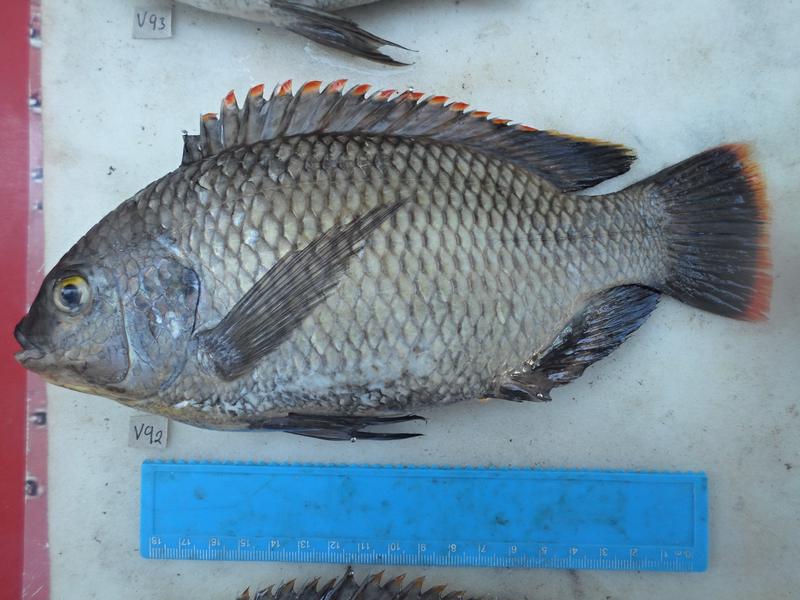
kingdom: Animalia
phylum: Chordata
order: Perciformes
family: Cichlidae
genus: Oreochromis
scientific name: Oreochromis variabilis
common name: Victoria tilapia
